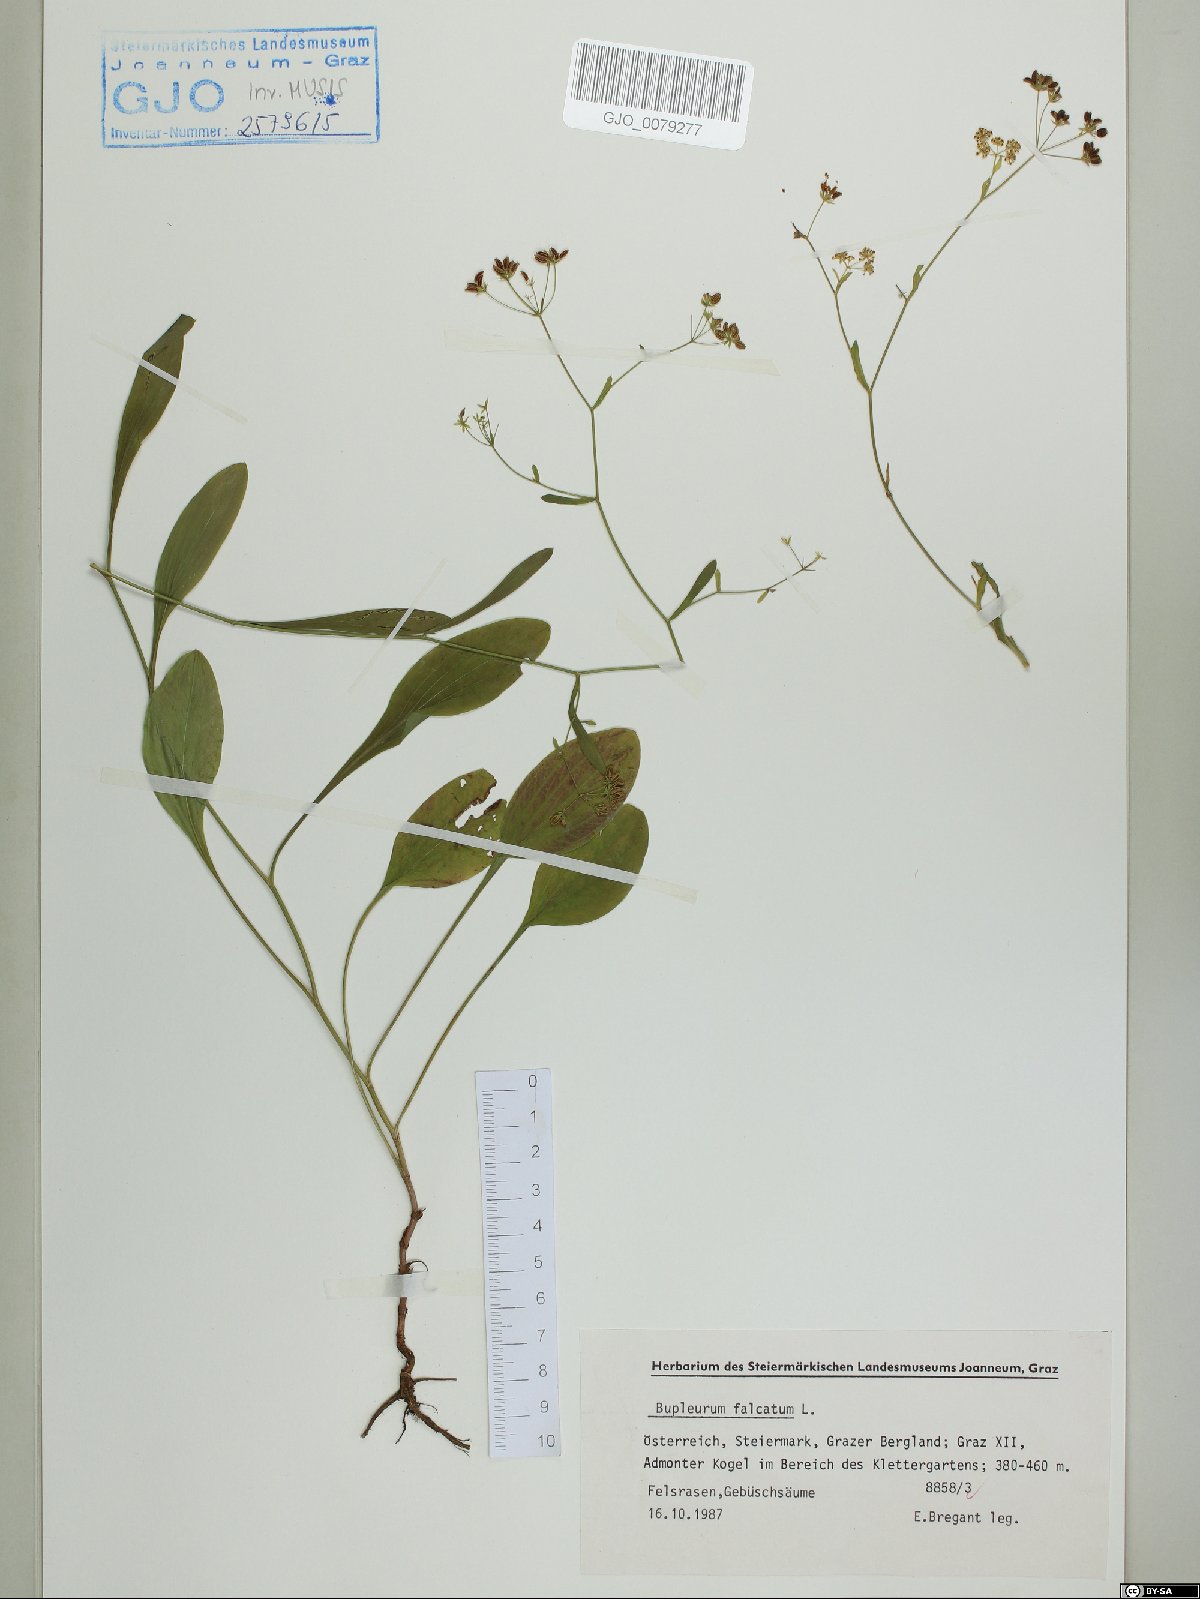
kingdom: Plantae
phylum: Tracheophyta
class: Magnoliopsida
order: Apiales
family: Apiaceae
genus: Bupleurum
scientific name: Bupleurum falcatum
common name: Sickle-leaved hare's-ear
